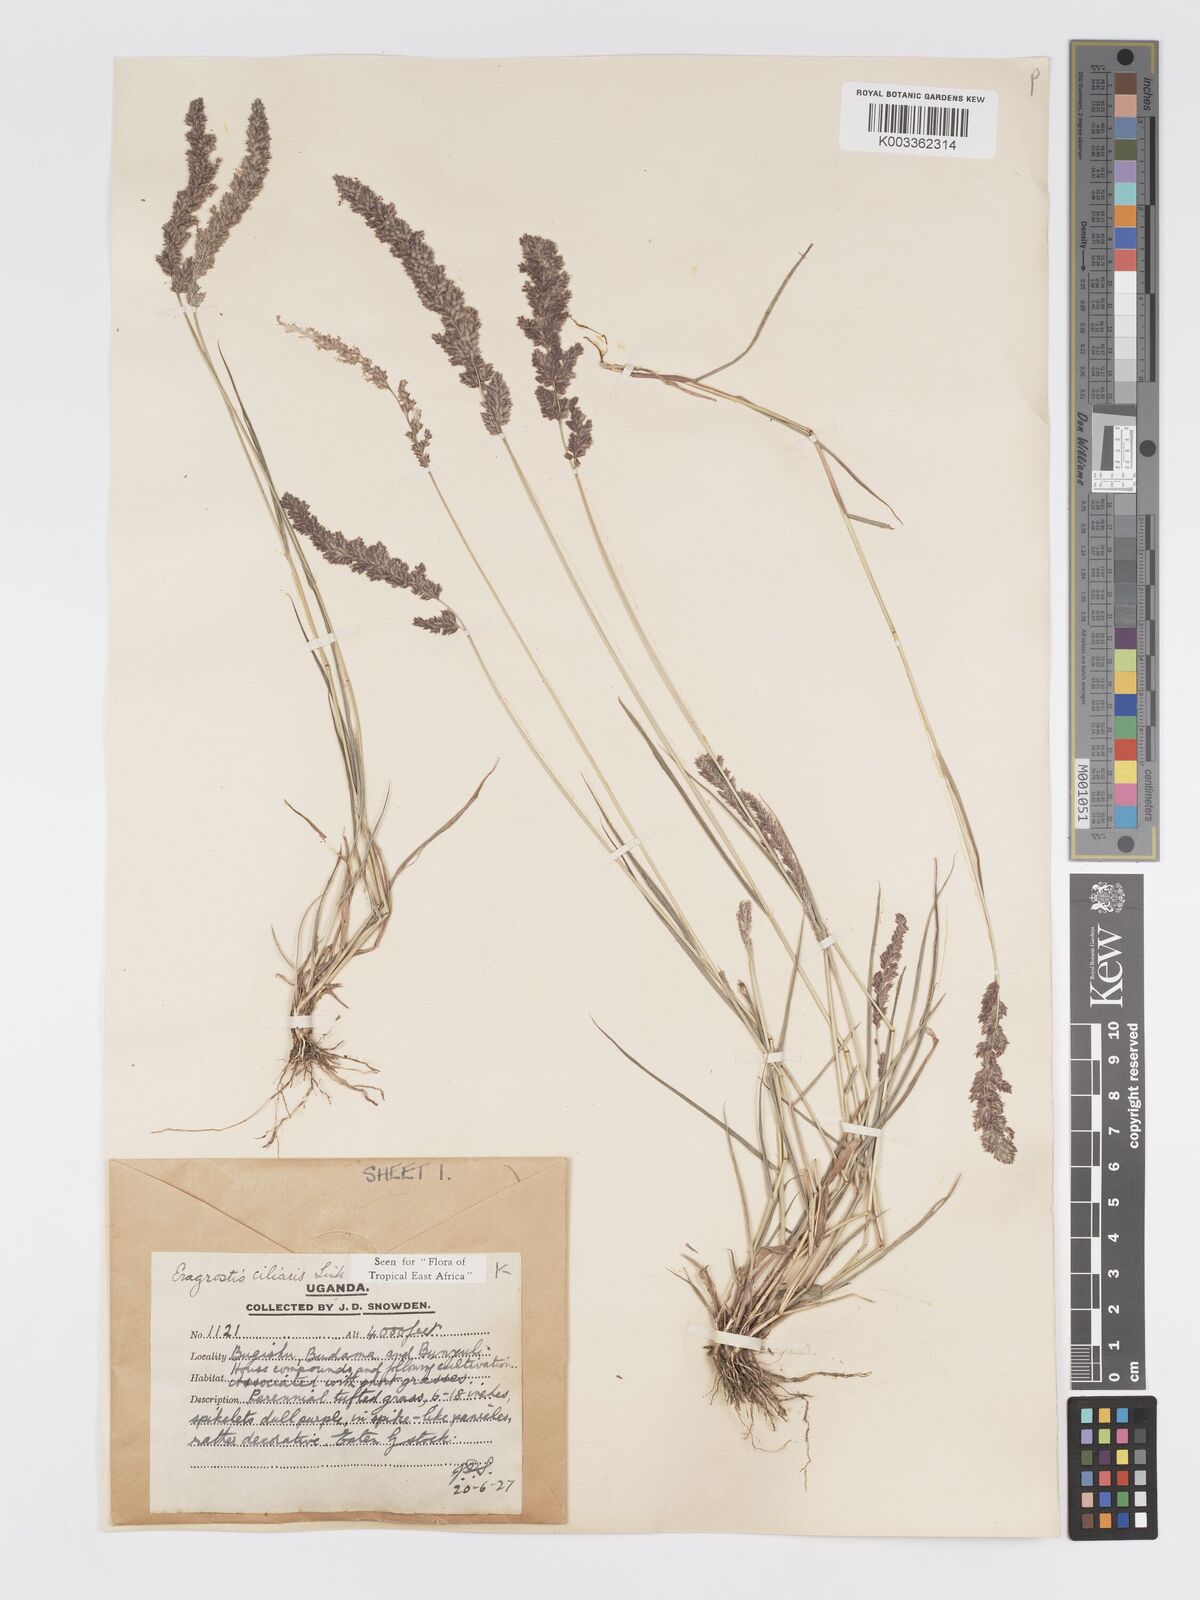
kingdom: Plantae
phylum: Tracheophyta
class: Liliopsida
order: Poales
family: Poaceae
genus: Eragrostis
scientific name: Eragrostis ciliaris
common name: Gophertail lovegrass
